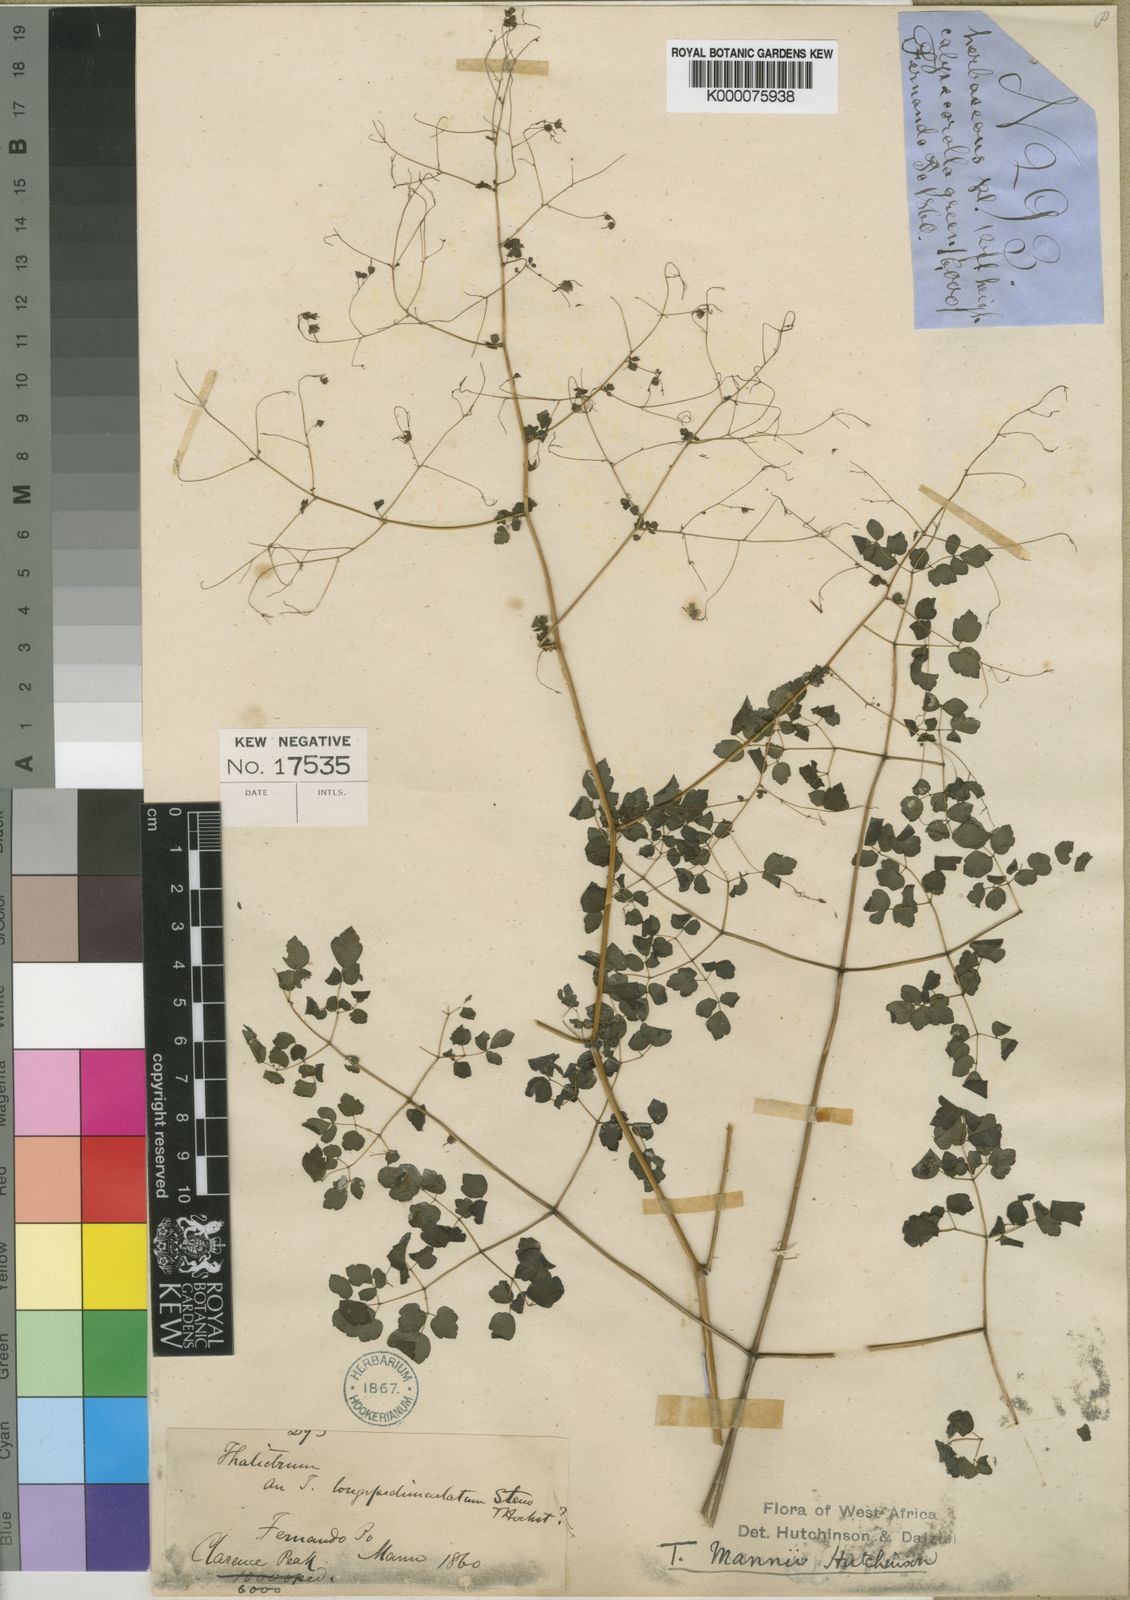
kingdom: Plantae
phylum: Tracheophyta
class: Magnoliopsida
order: Ranunculales
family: Ranunculaceae
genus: Thalictrum
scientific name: Thalictrum rhynchocarpum
